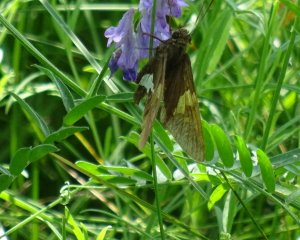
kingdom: Animalia
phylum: Arthropoda
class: Insecta
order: Lepidoptera
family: Hesperiidae
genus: Epargyreus
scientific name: Epargyreus clarus
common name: Silver-spotted Skipper
